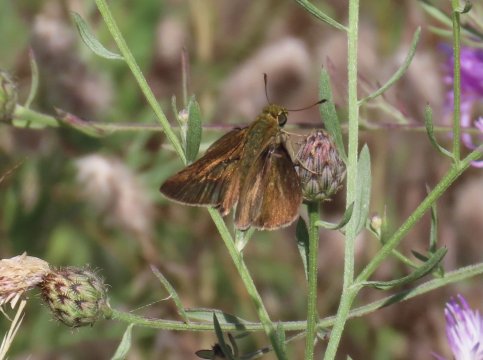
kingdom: Animalia
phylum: Arthropoda
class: Insecta
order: Lepidoptera
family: Hesperiidae
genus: Euphyes
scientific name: Euphyes vestris
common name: Dun Skipper
